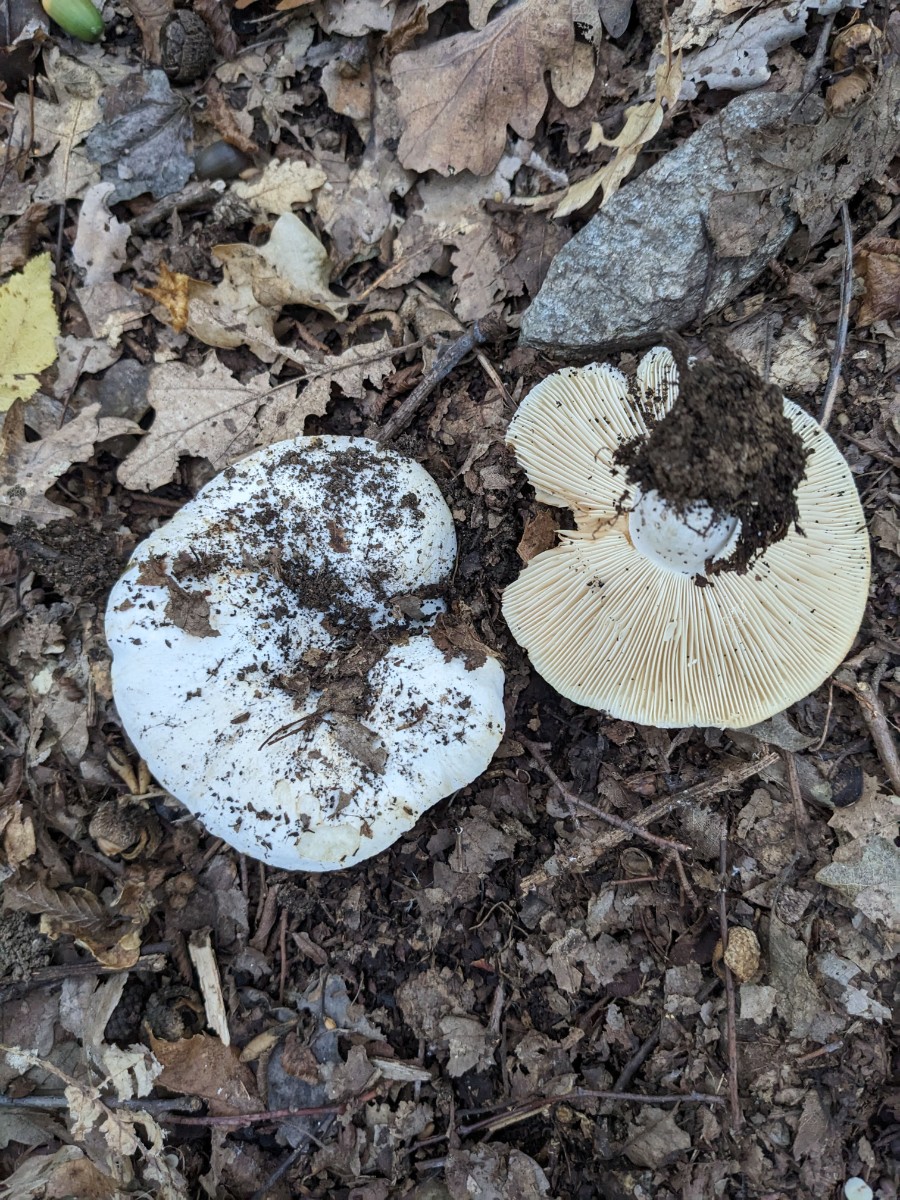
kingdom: Fungi
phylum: Basidiomycota
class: Agaricomycetes
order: Russulales
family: Russulaceae
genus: Russula
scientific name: Russula pseudodelica
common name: gulbladet tragt-skørhat
